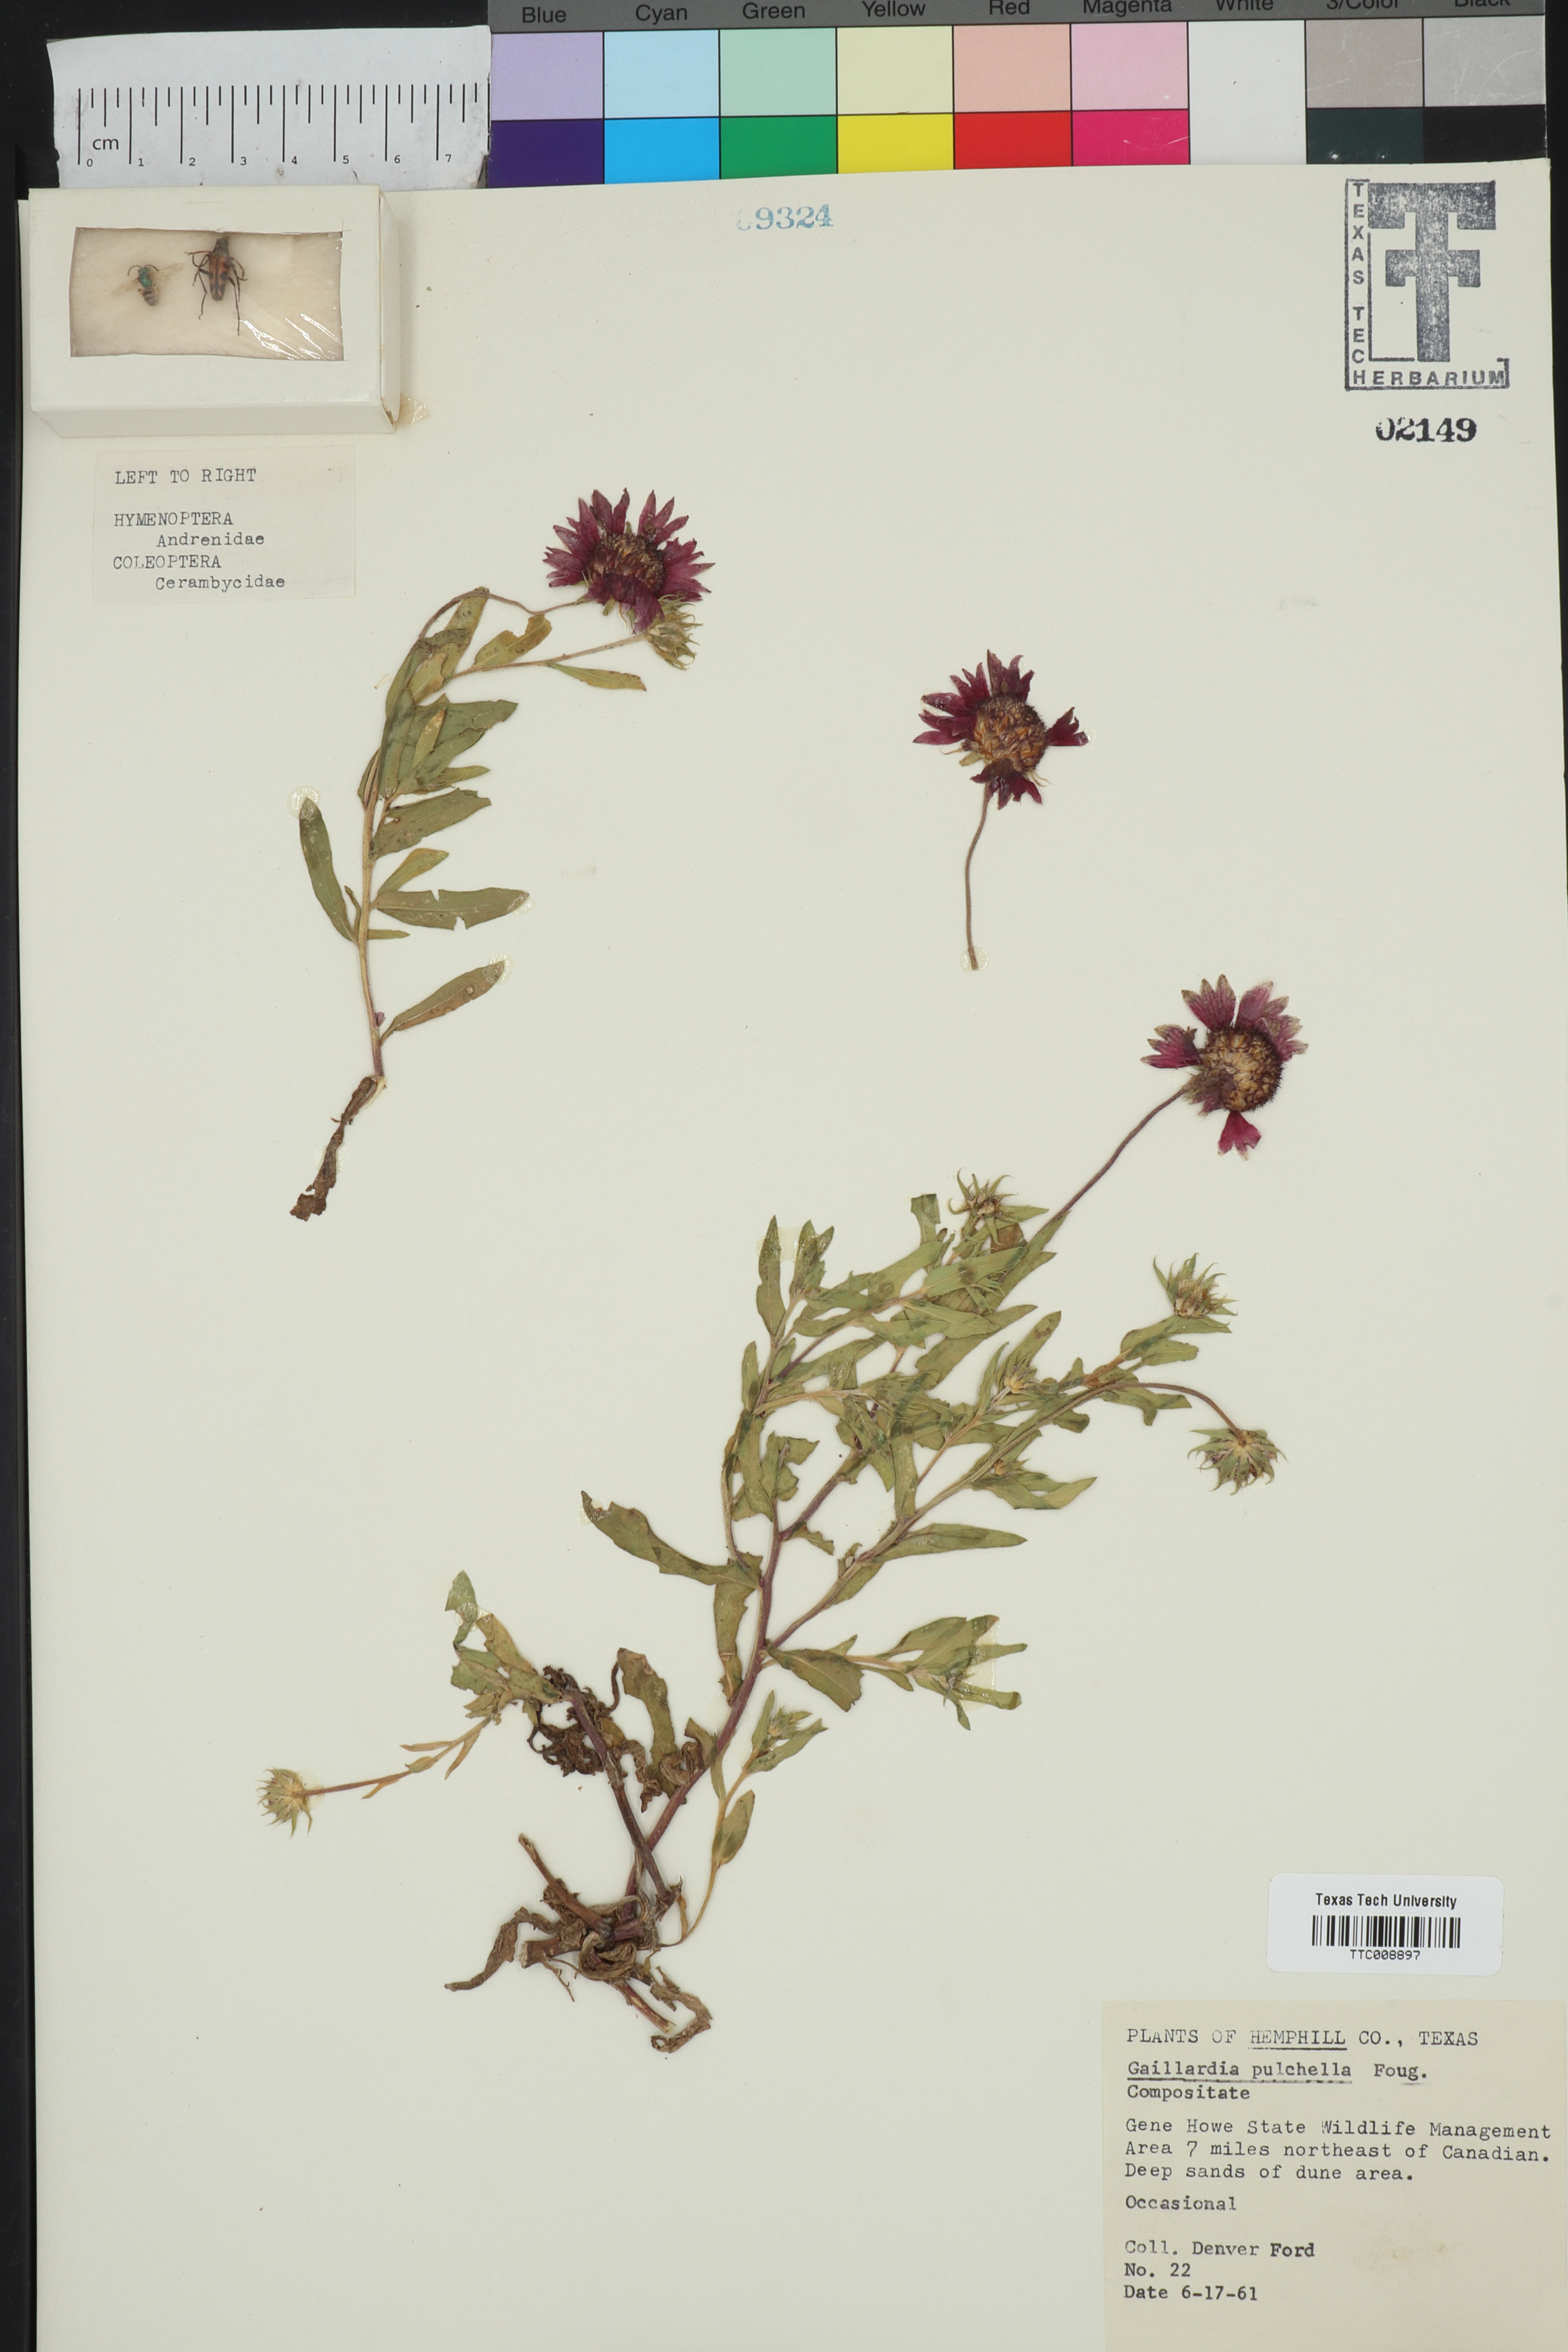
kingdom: Plantae
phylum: Tracheophyta
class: Magnoliopsida
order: Asterales
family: Asteraceae
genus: Gaillardia
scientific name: Gaillardia pulchella
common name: Firewheel
